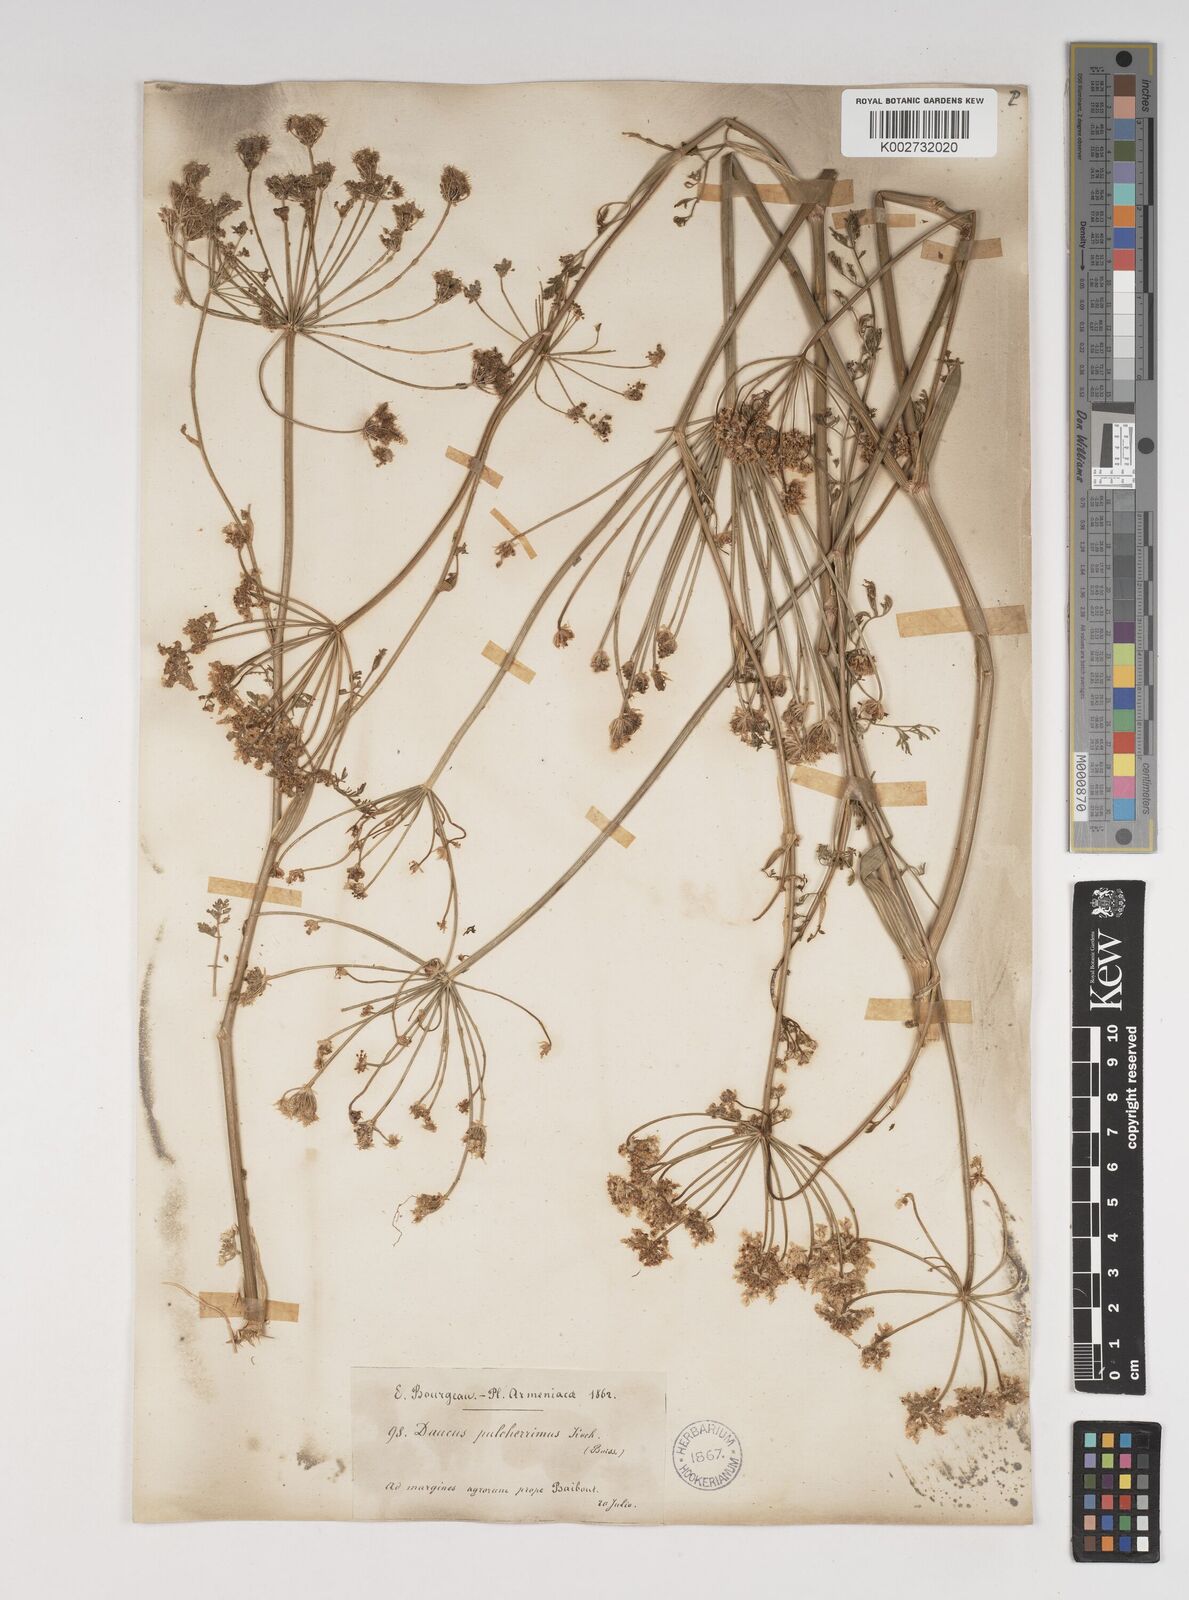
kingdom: Plantae
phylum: Tracheophyta
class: Magnoliopsida
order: Apiales
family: Apiaceae
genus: Astrodaucus
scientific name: Astrodaucus
